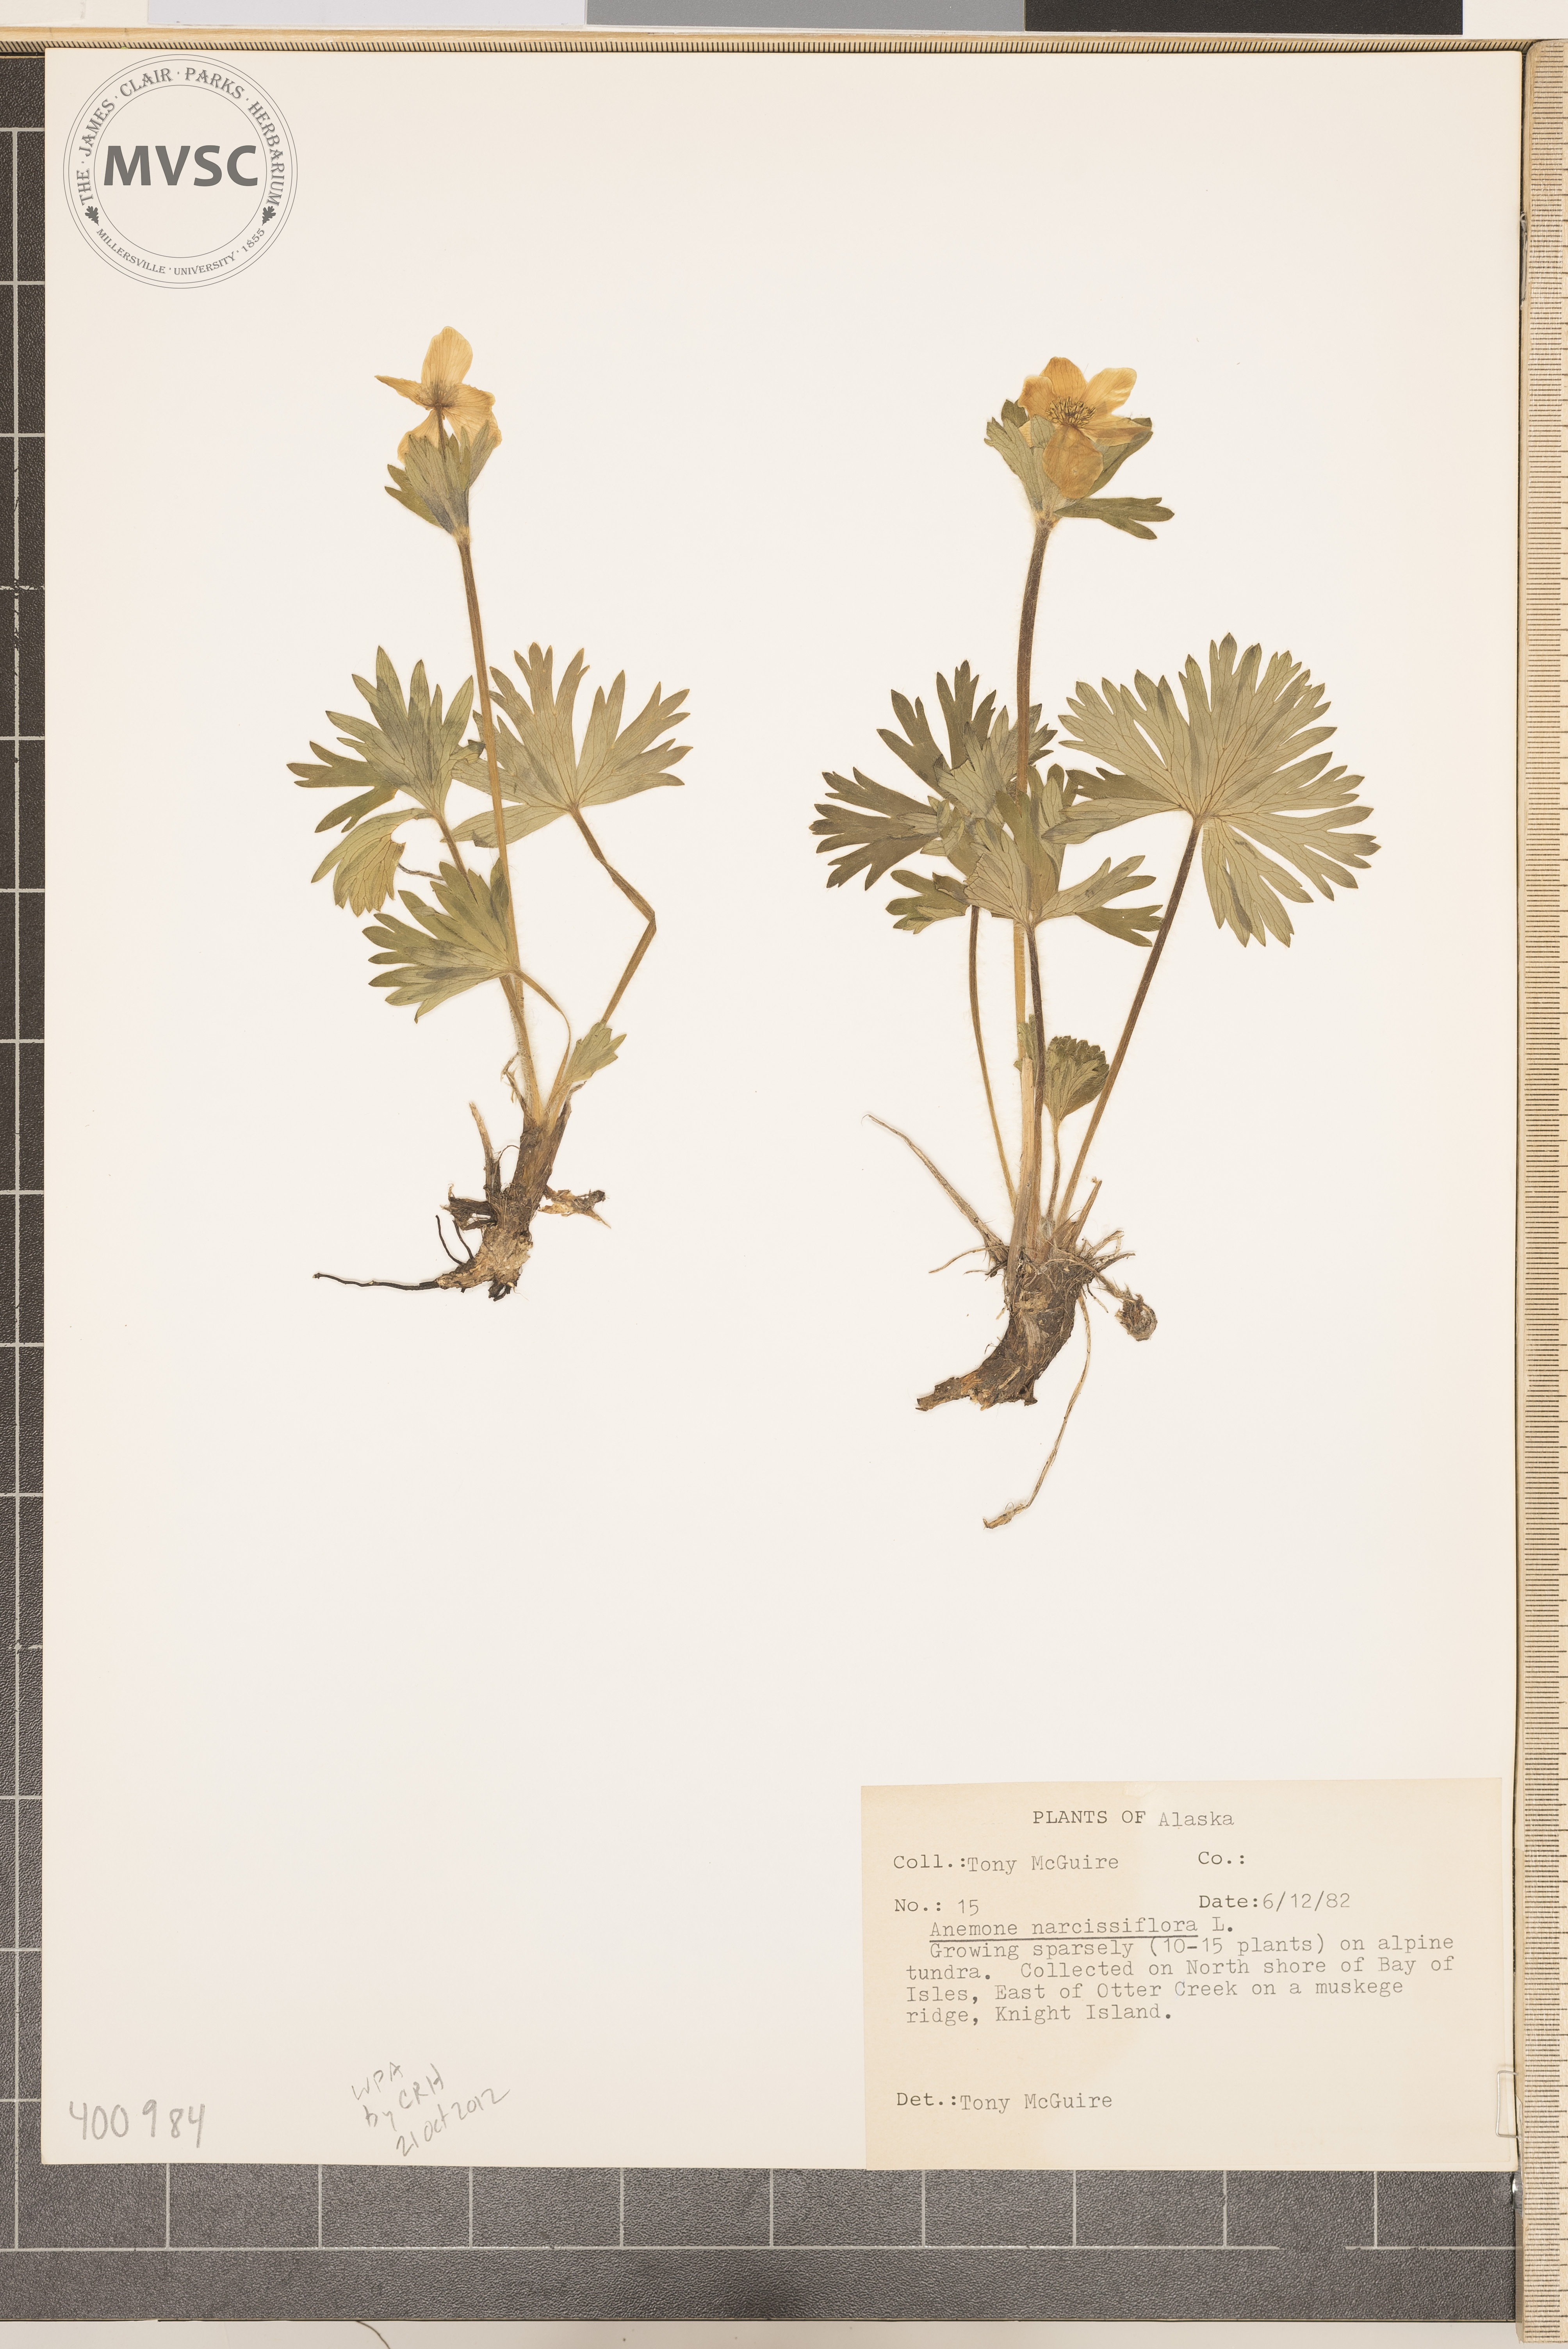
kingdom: Plantae
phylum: Tracheophyta
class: Magnoliopsida
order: Ranunculales
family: Ranunculaceae
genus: Anemone
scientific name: Anemone multifida
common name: anemone
